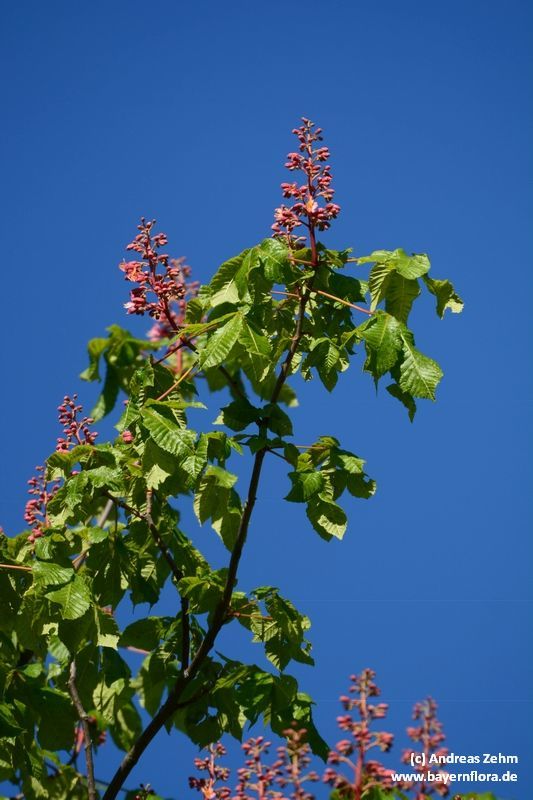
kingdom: Plantae
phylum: Tracheophyta
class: Magnoliopsida
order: Sapindales
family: Sapindaceae
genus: Aesculus
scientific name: Aesculus carnea
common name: Red horse-chestnut
